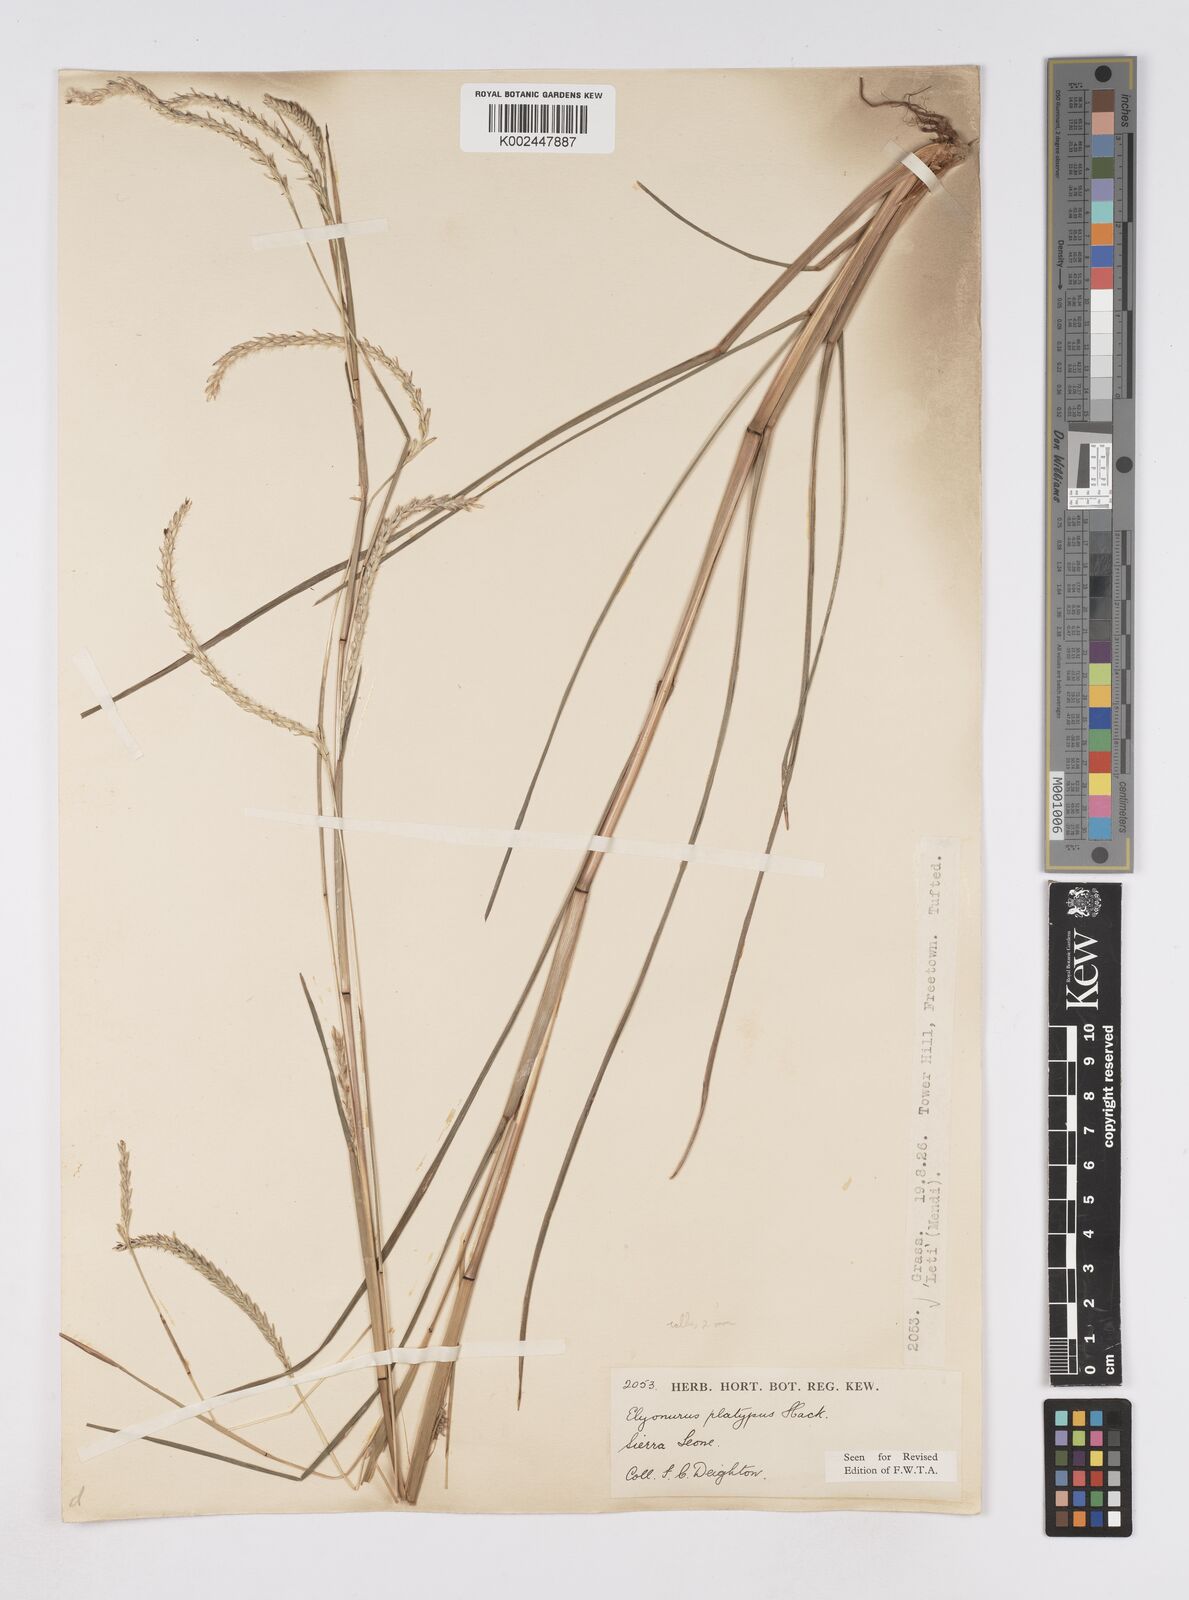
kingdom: Plantae
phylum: Tracheophyta
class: Liliopsida
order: Poales
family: Poaceae
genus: Elionurus
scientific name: Elionurus platypus
